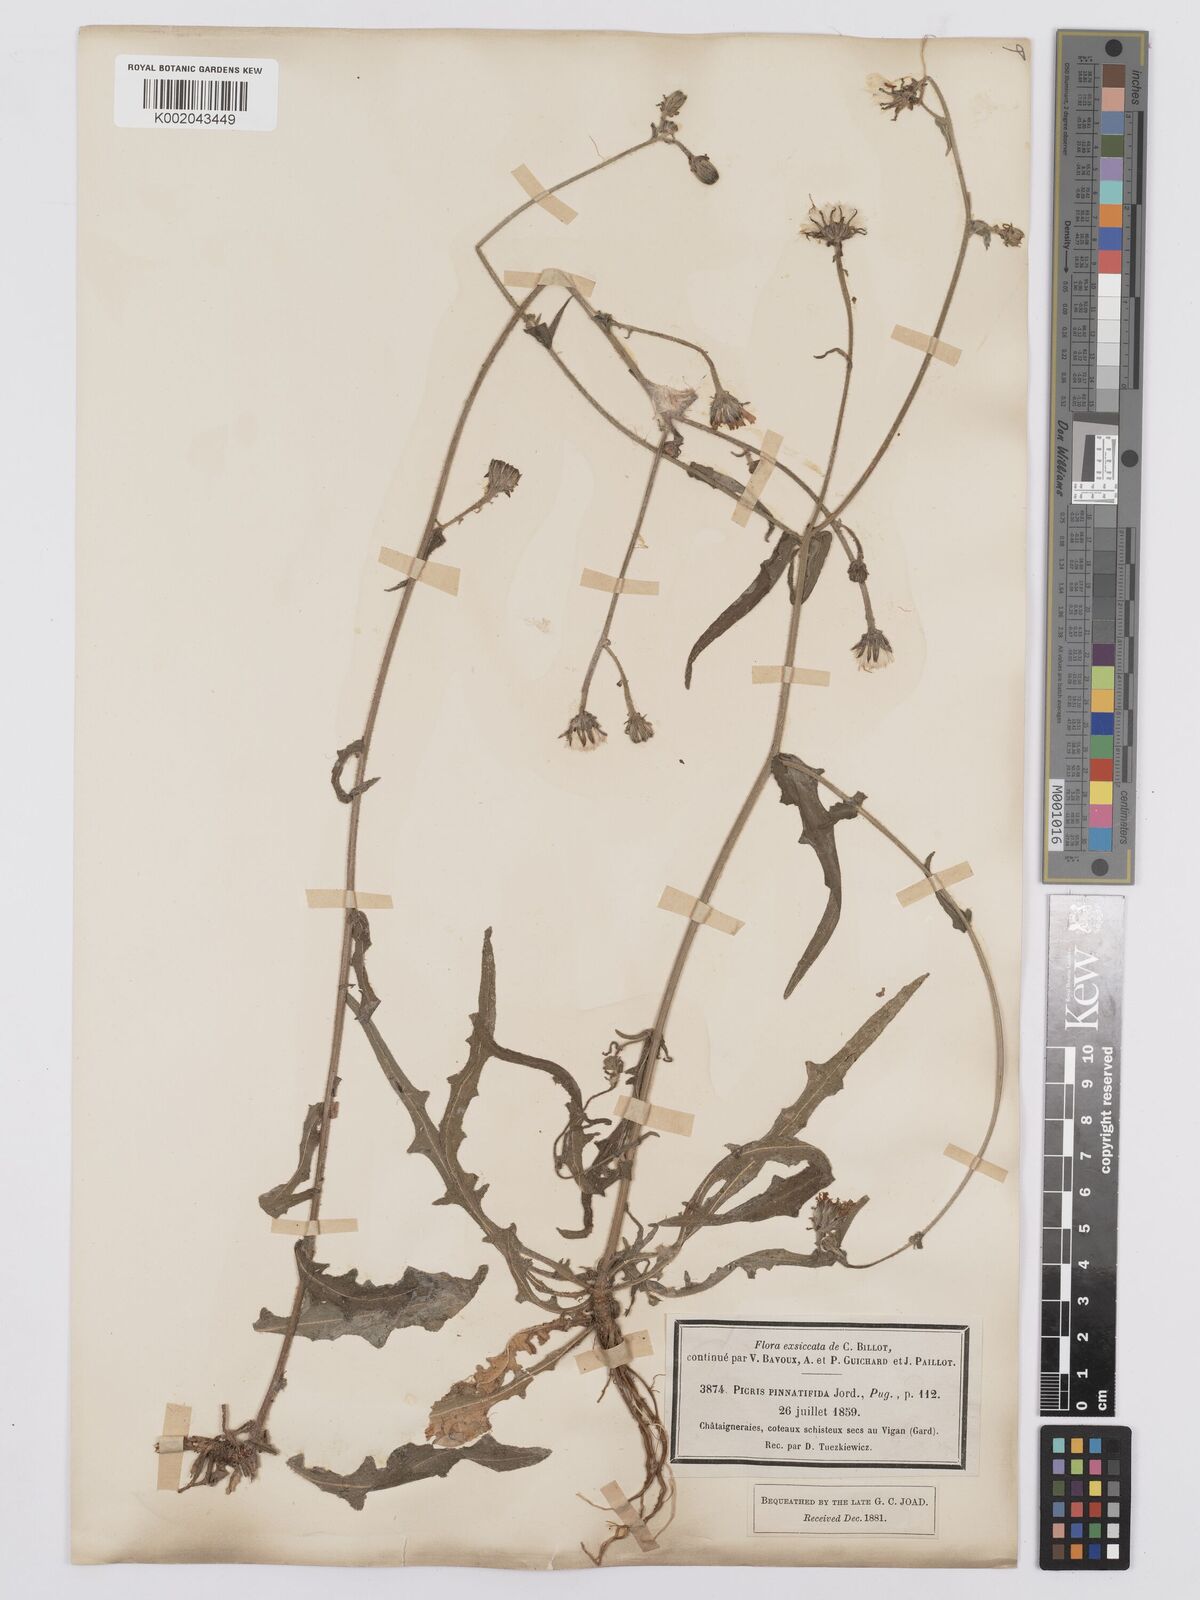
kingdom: Plantae
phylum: Tracheophyta
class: Magnoliopsida
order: Asterales
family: Asteraceae
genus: Picris
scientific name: Picris hieracioides
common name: Hawkweed oxtongue
